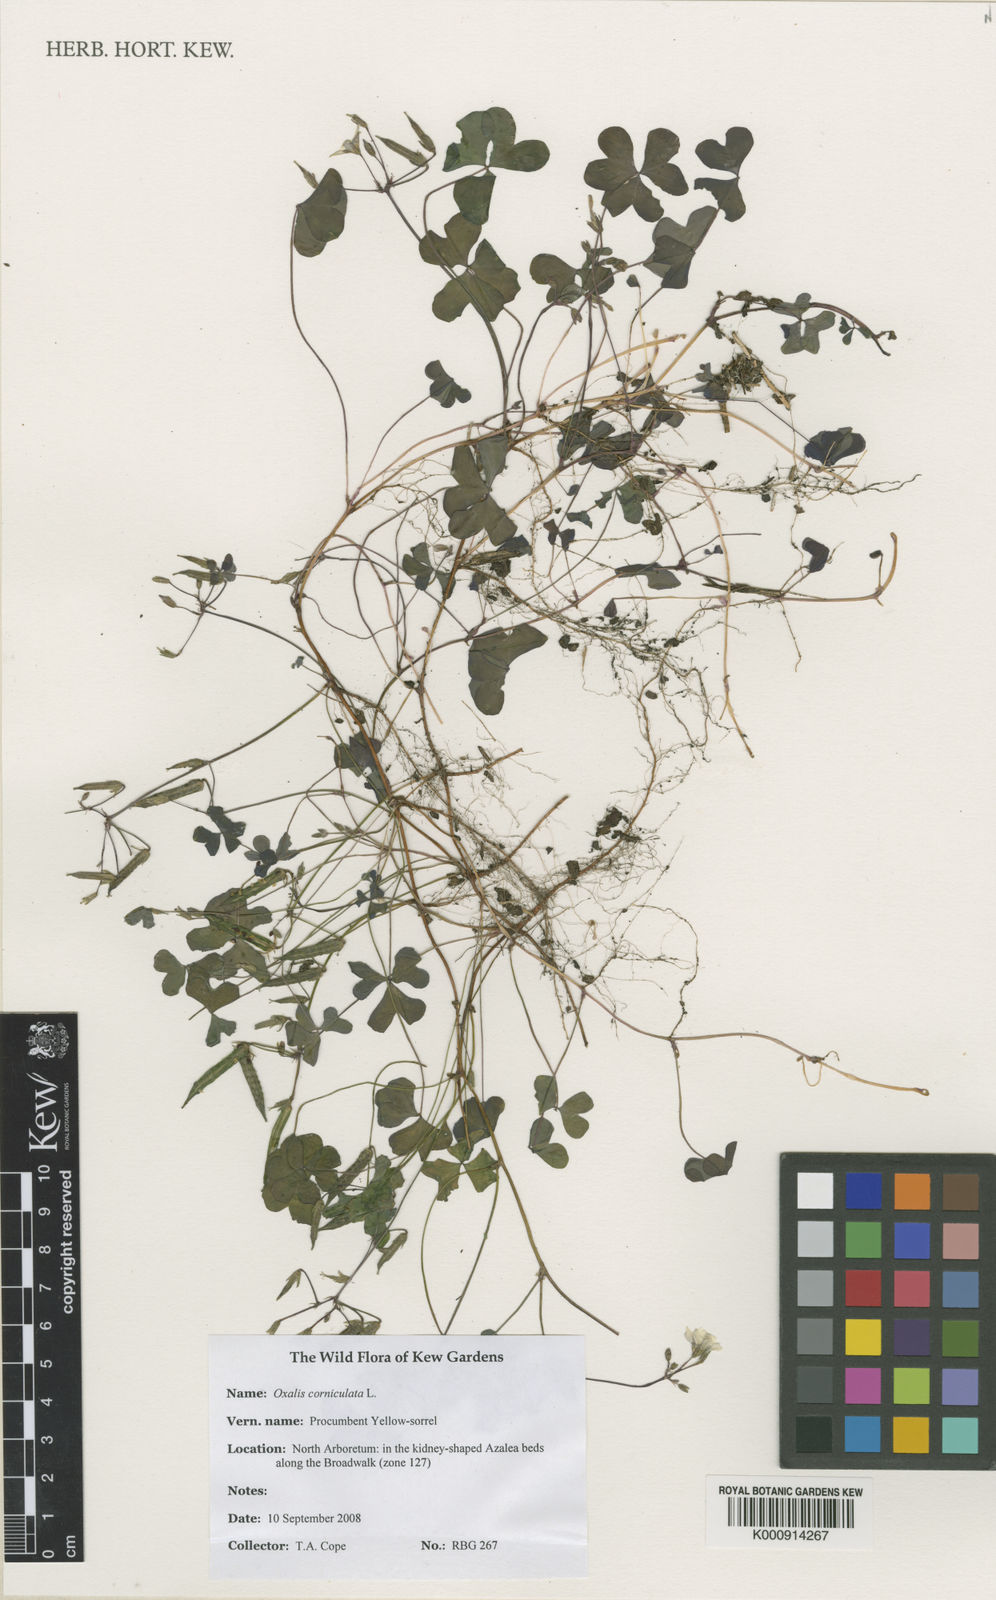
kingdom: Plantae
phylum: Tracheophyta
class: Magnoliopsida
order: Oxalidales
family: Oxalidaceae
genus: Oxalis
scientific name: Oxalis corniculata
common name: Procumbent yellow-sorrel
